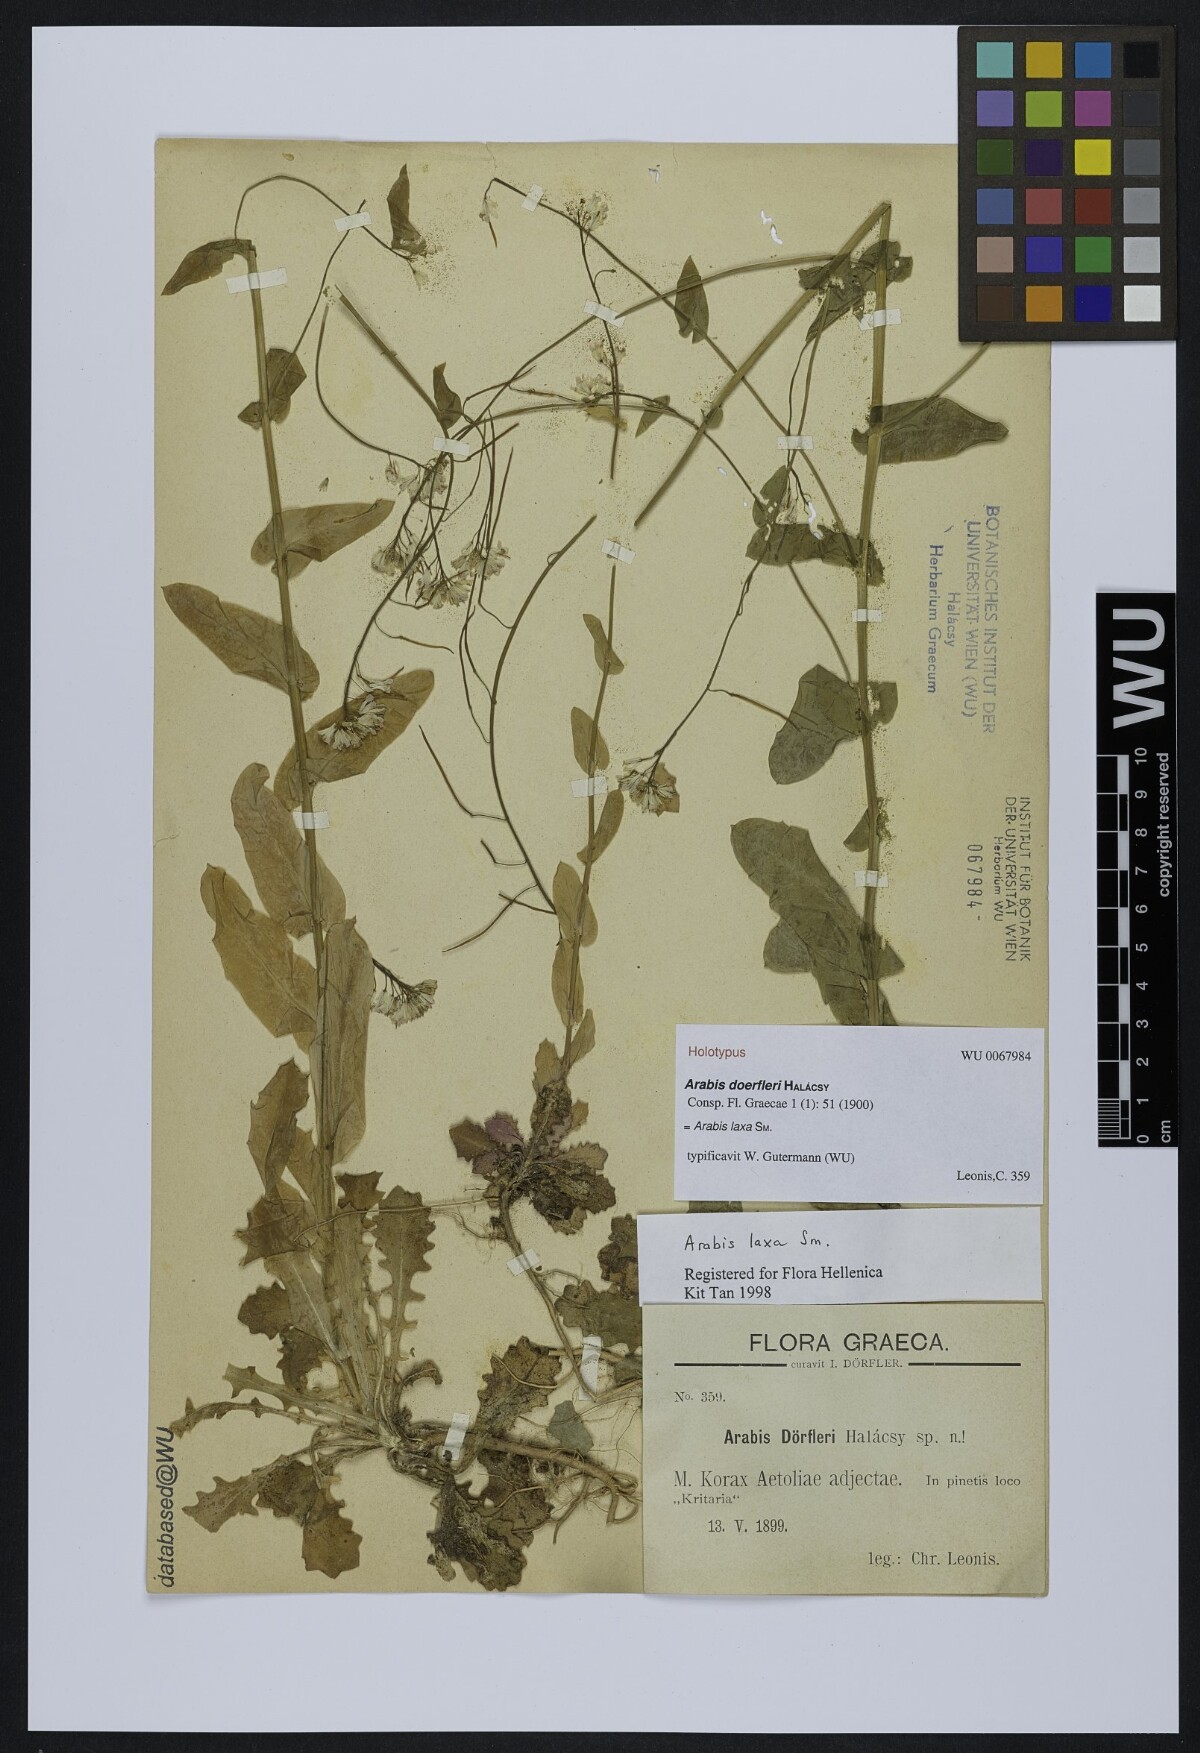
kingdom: Plantae
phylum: Tracheophyta
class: Magnoliopsida
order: Brassicales
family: Brassicaceae
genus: Turritis
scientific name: Turritis laxa
